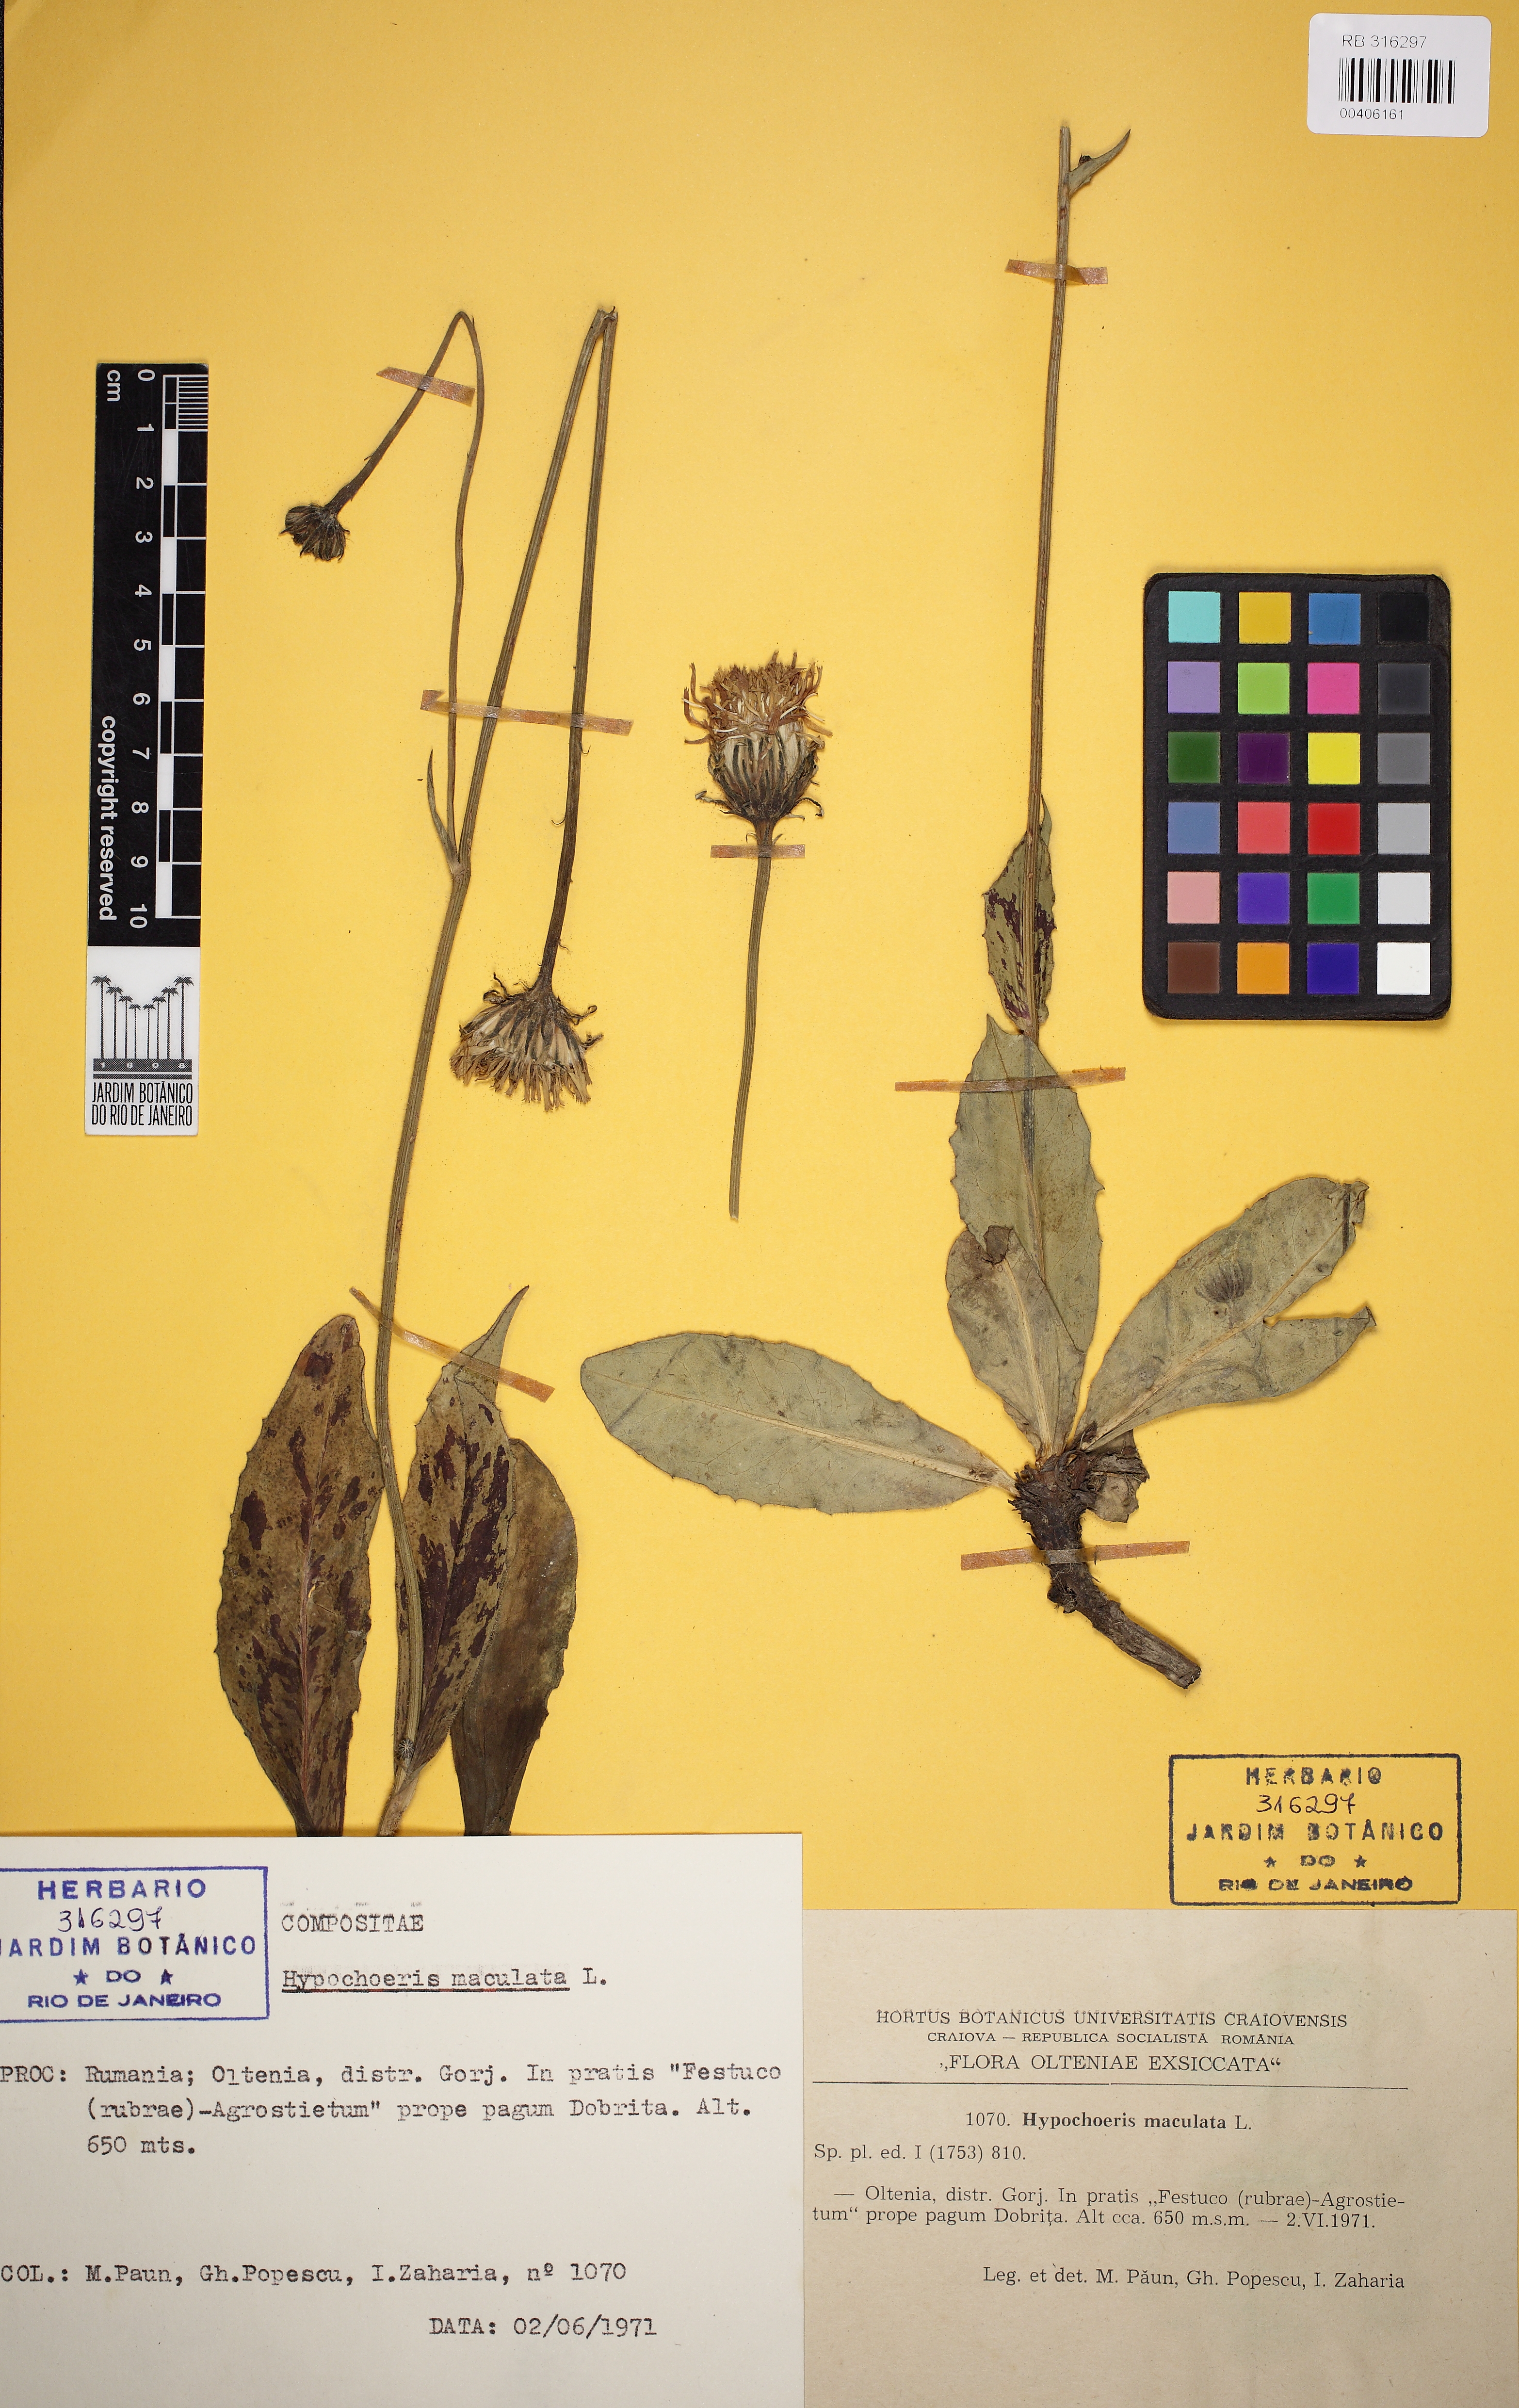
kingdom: Plantae
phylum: Tracheophyta
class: Magnoliopsida
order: Asterales
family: Asteraceae
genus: Trommsdorffia
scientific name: Trommsdorffia maculata
